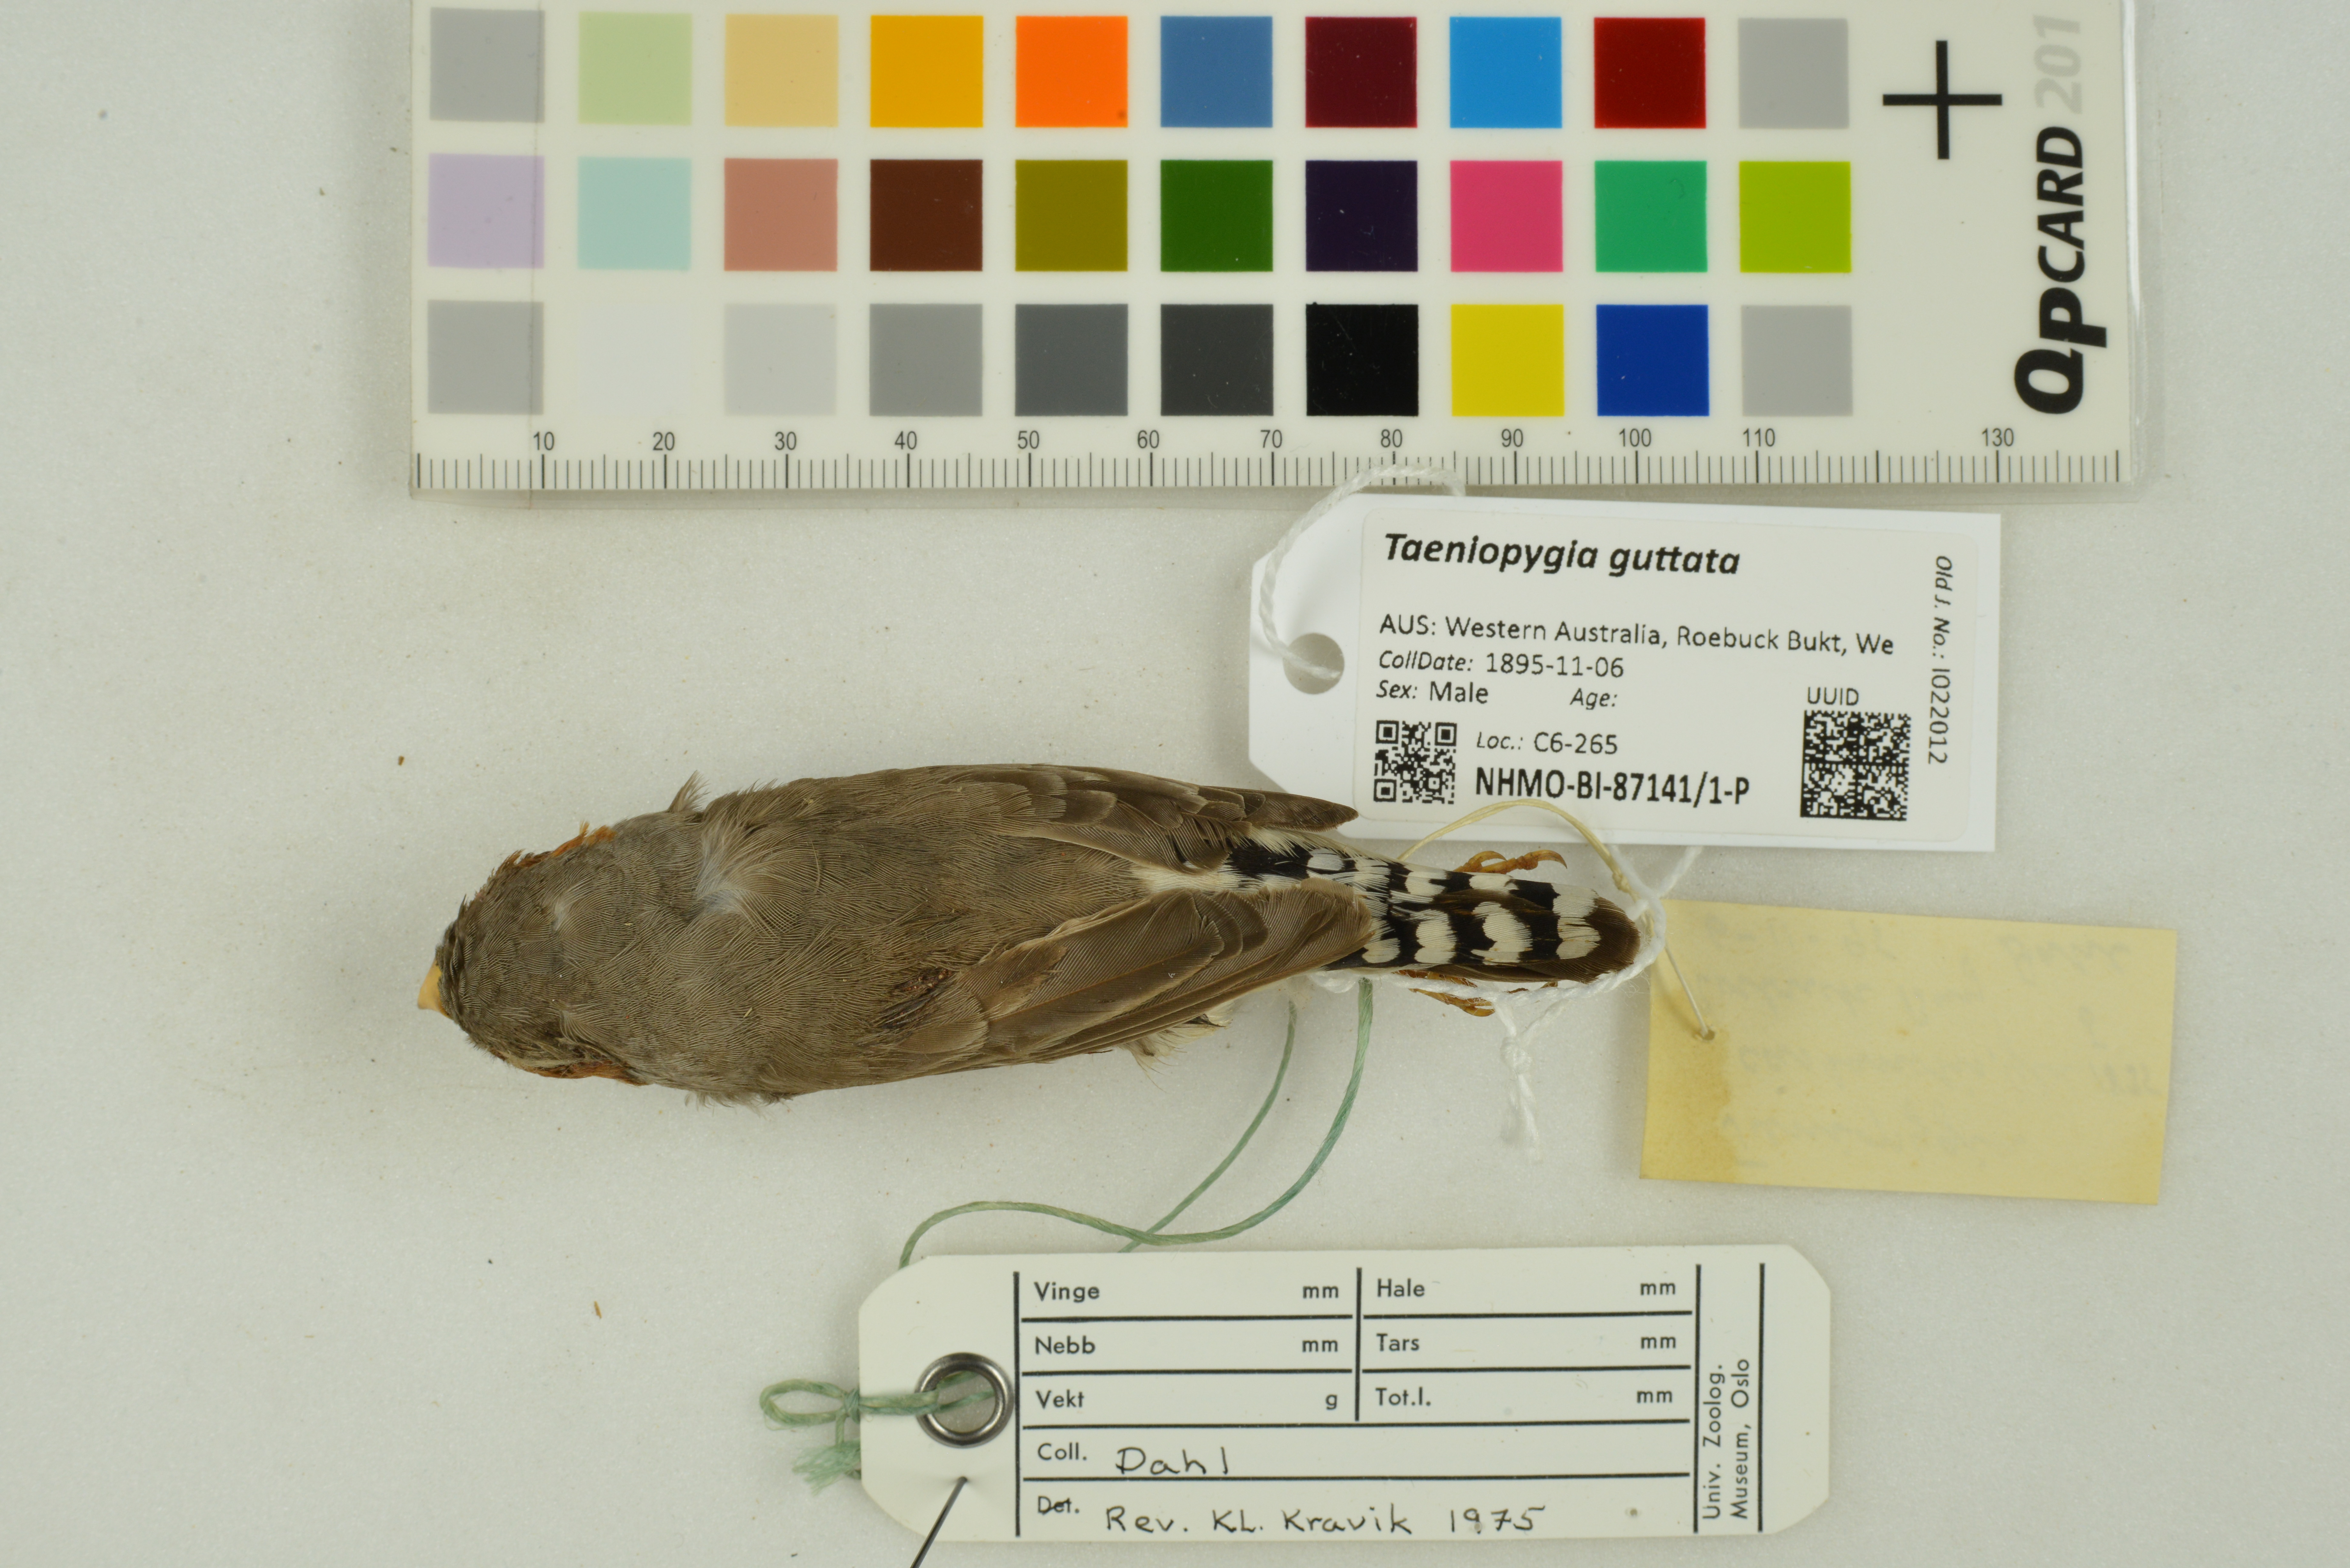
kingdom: Animalia
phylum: Chordata
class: Aves
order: Passeriformes
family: Estrildidae
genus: Taeniopygia
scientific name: Taeniopygia guttata
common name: Zebra finch
